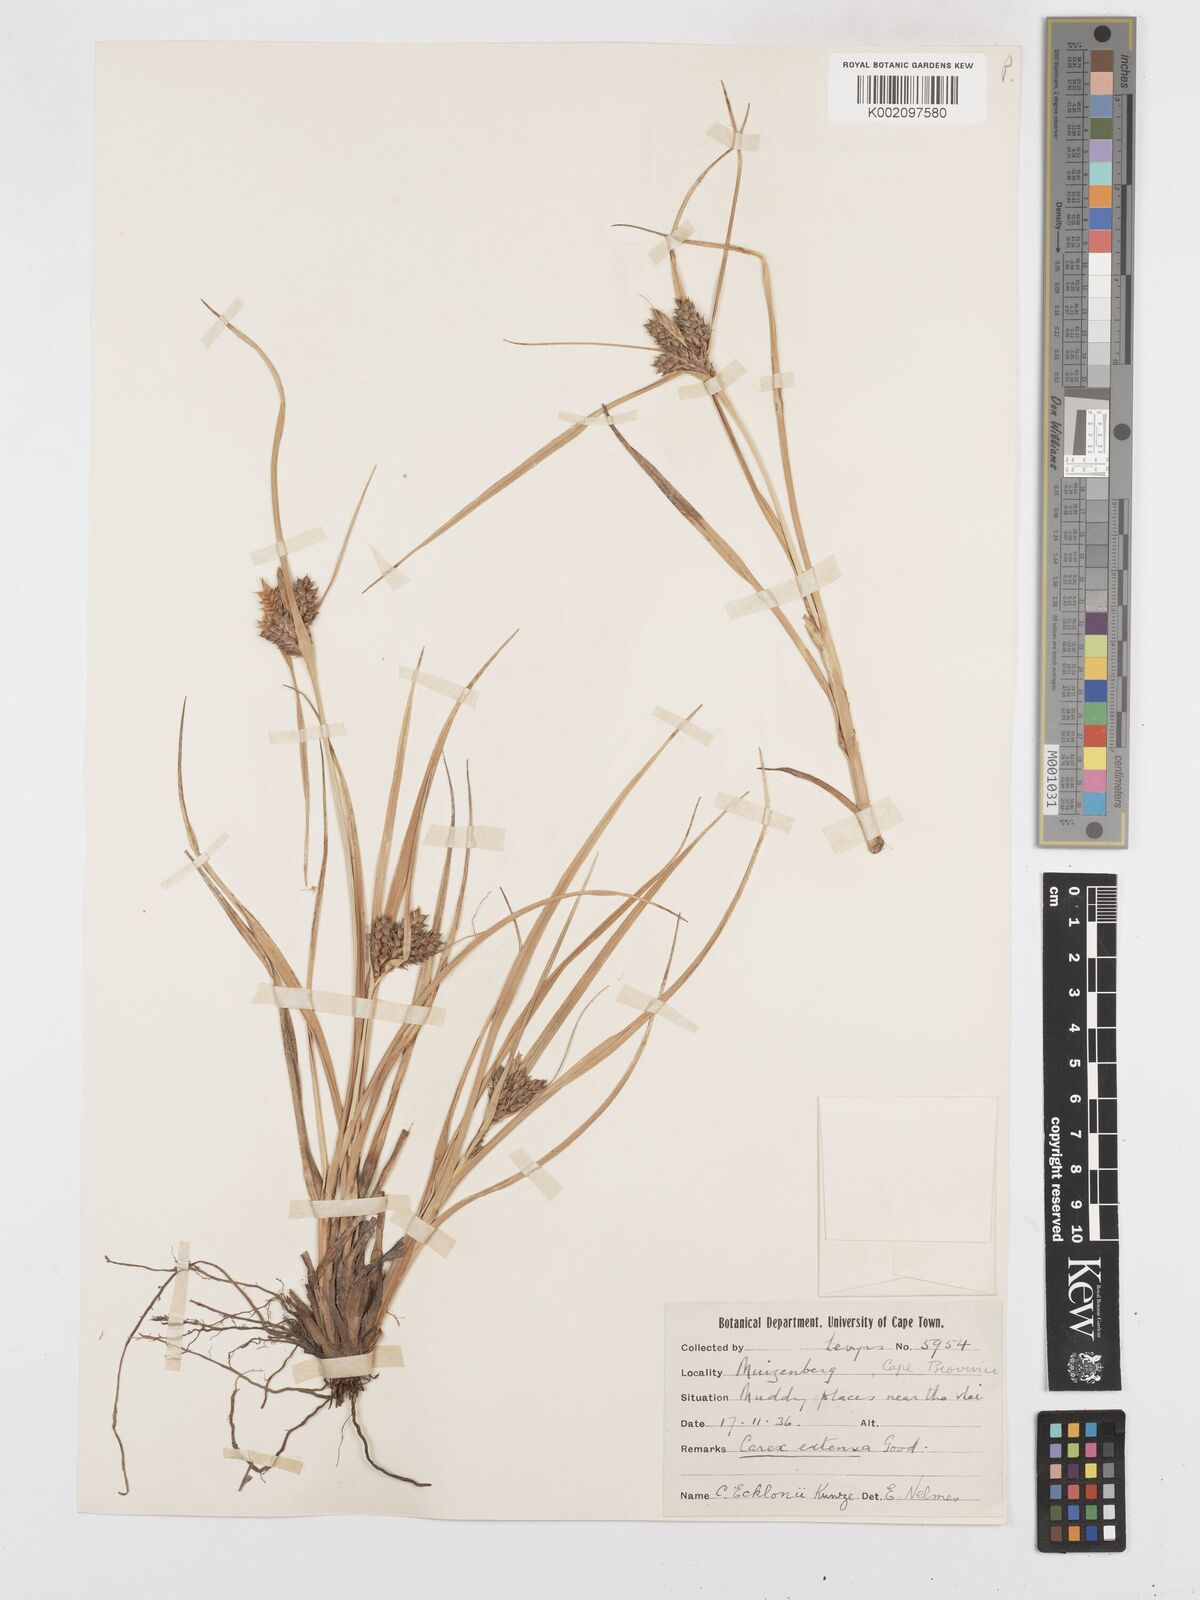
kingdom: Plantae
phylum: Tracheophyta
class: Liliopsida
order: Poales
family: Cyperaceae
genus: Carex
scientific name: Carex extensa
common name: Long-bracted sedge
